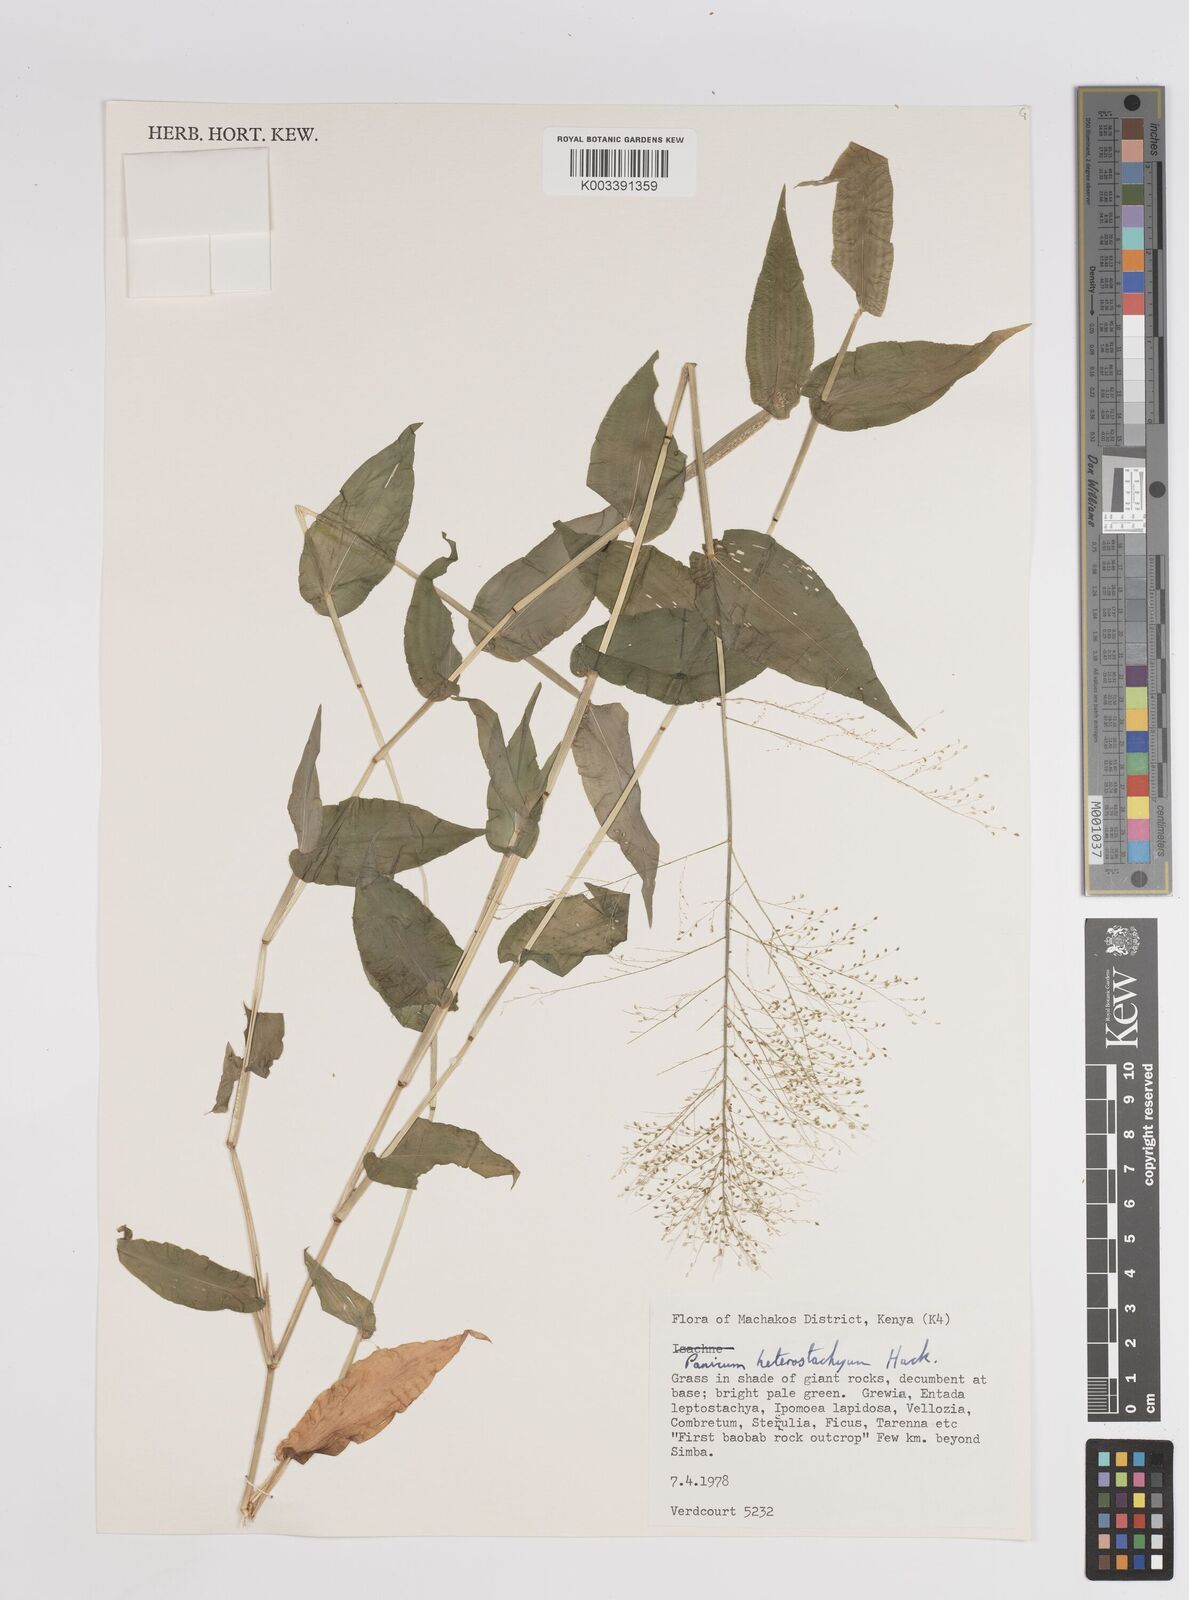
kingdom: Plantae
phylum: Tracheophyta
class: Liliopsida
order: Poales
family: Poaceae
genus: Panicum
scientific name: Panicum hirtum
